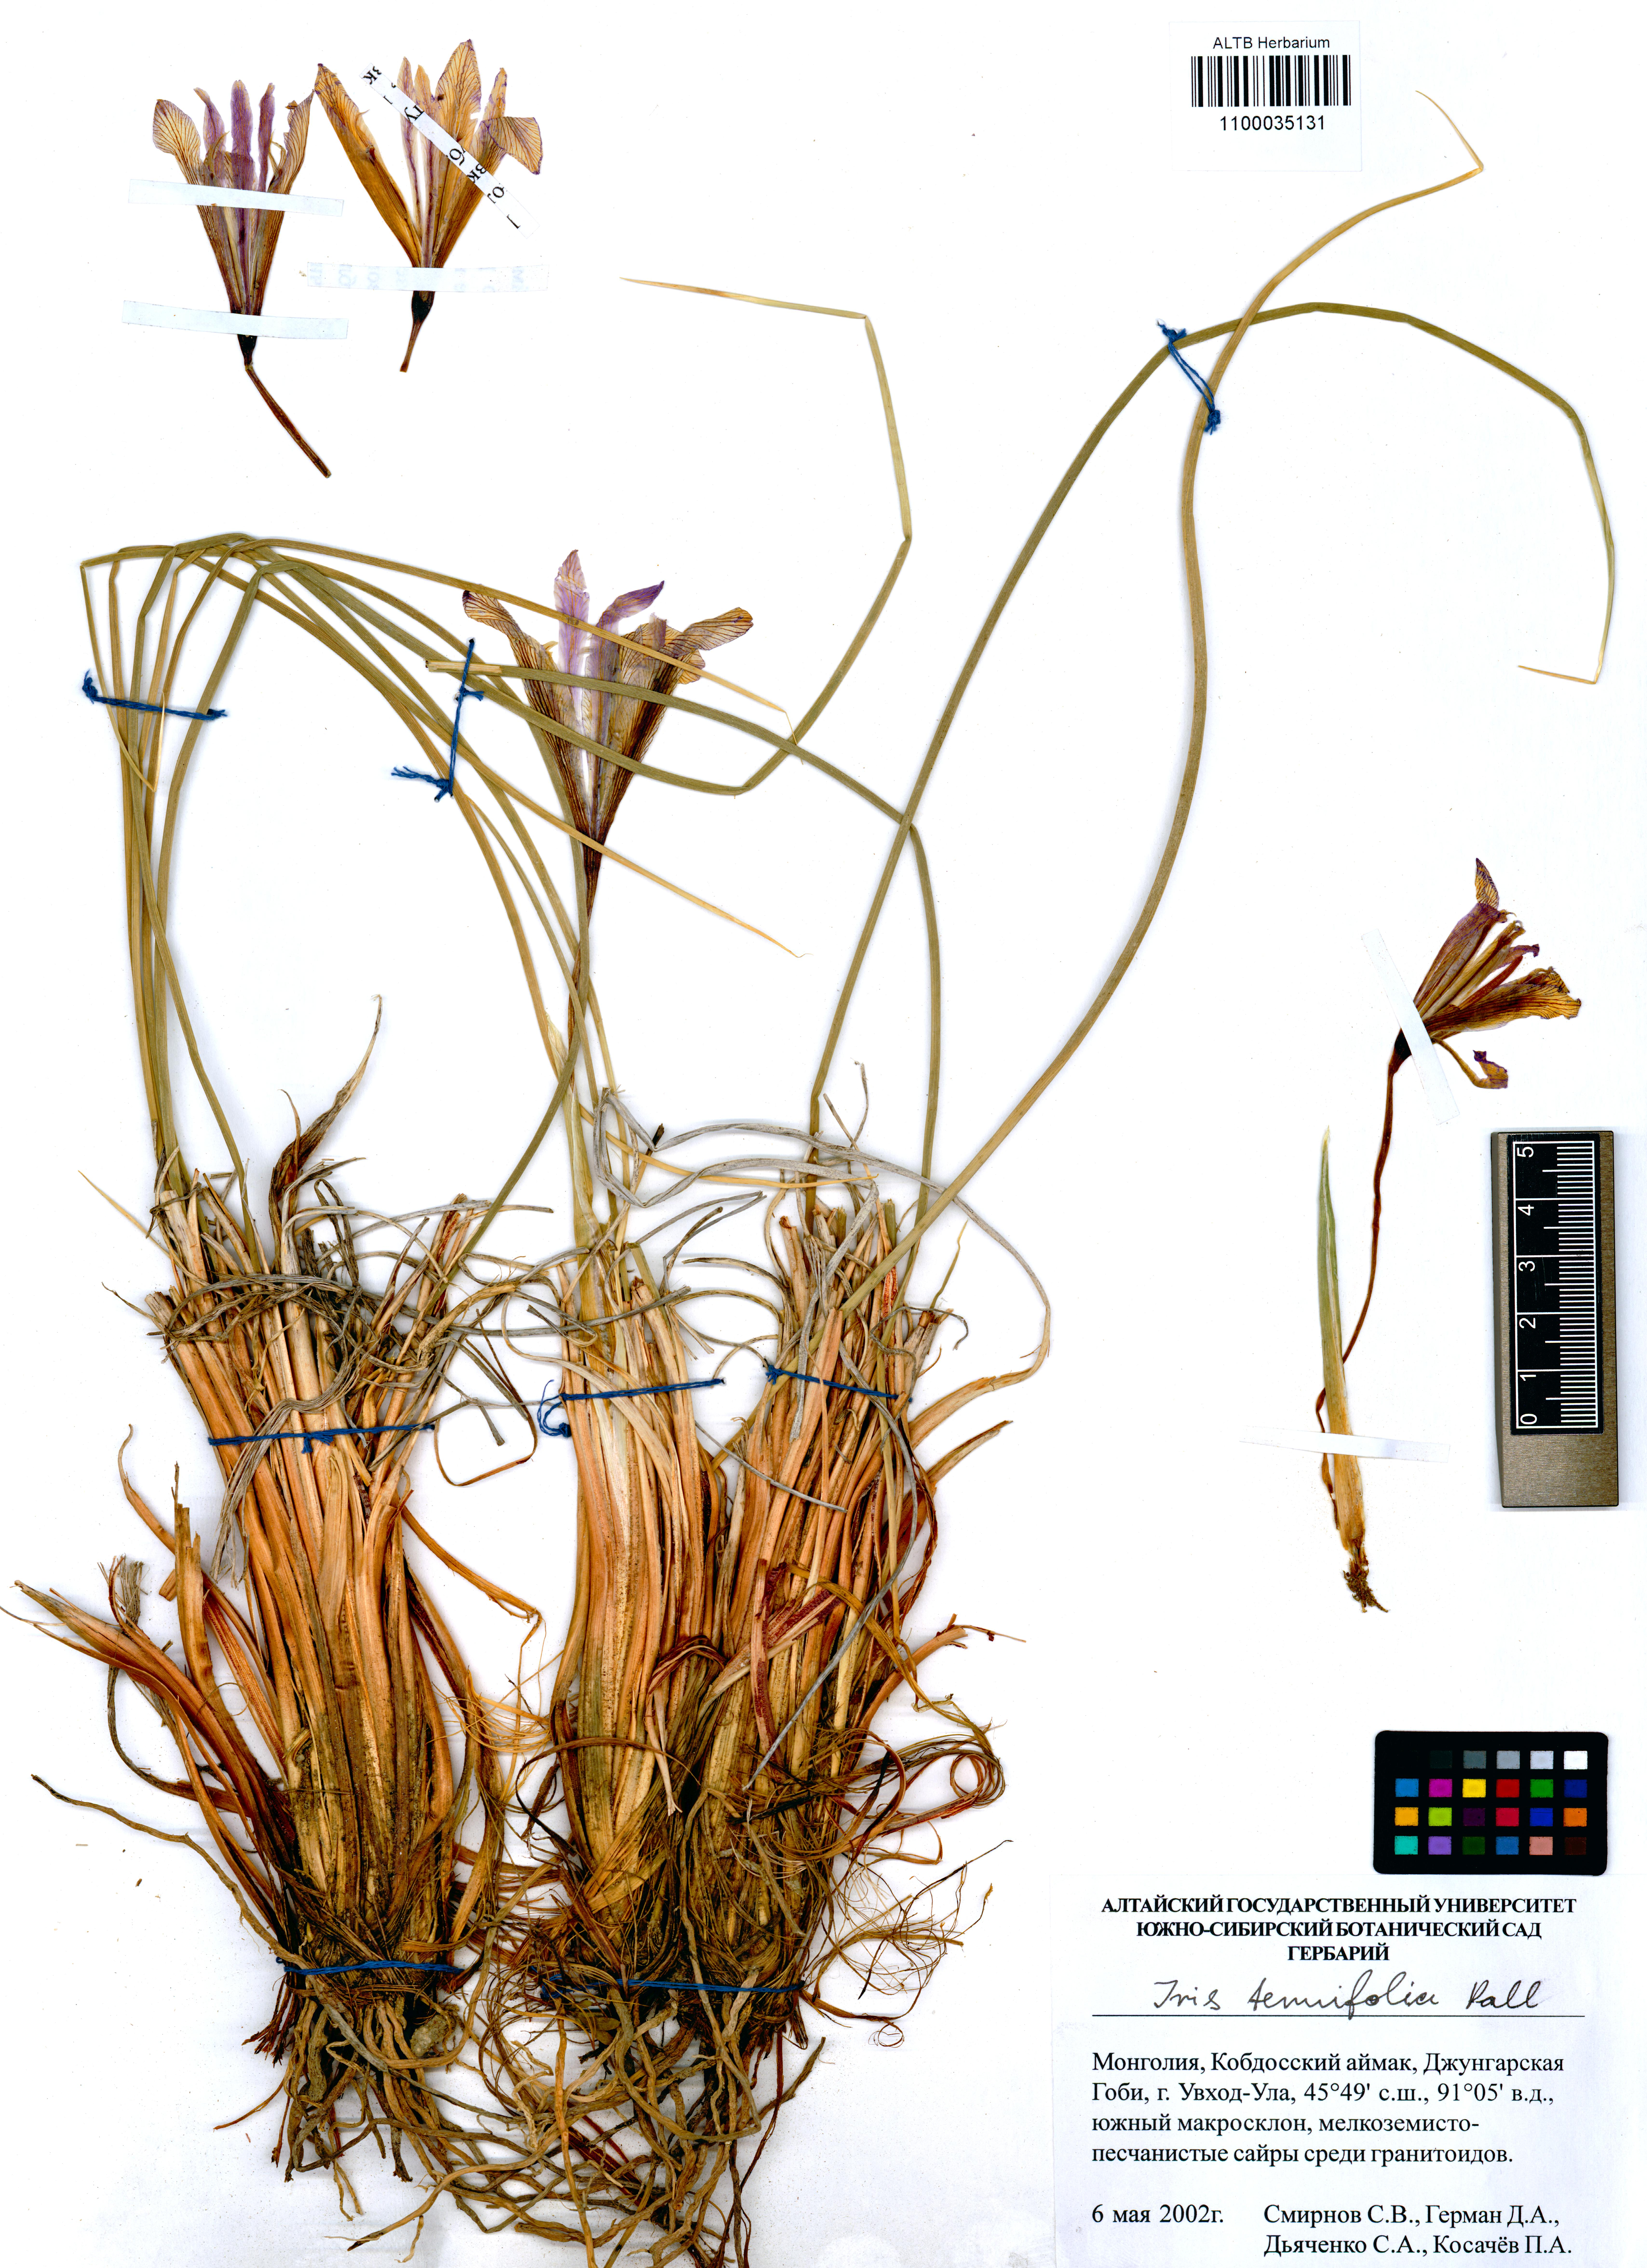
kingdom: Plantae
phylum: Tracheophyta
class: Liliopsida
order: Asparagales
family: Iridaceae
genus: Iris
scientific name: Iris tenuifolia
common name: Slender-leaf iris
